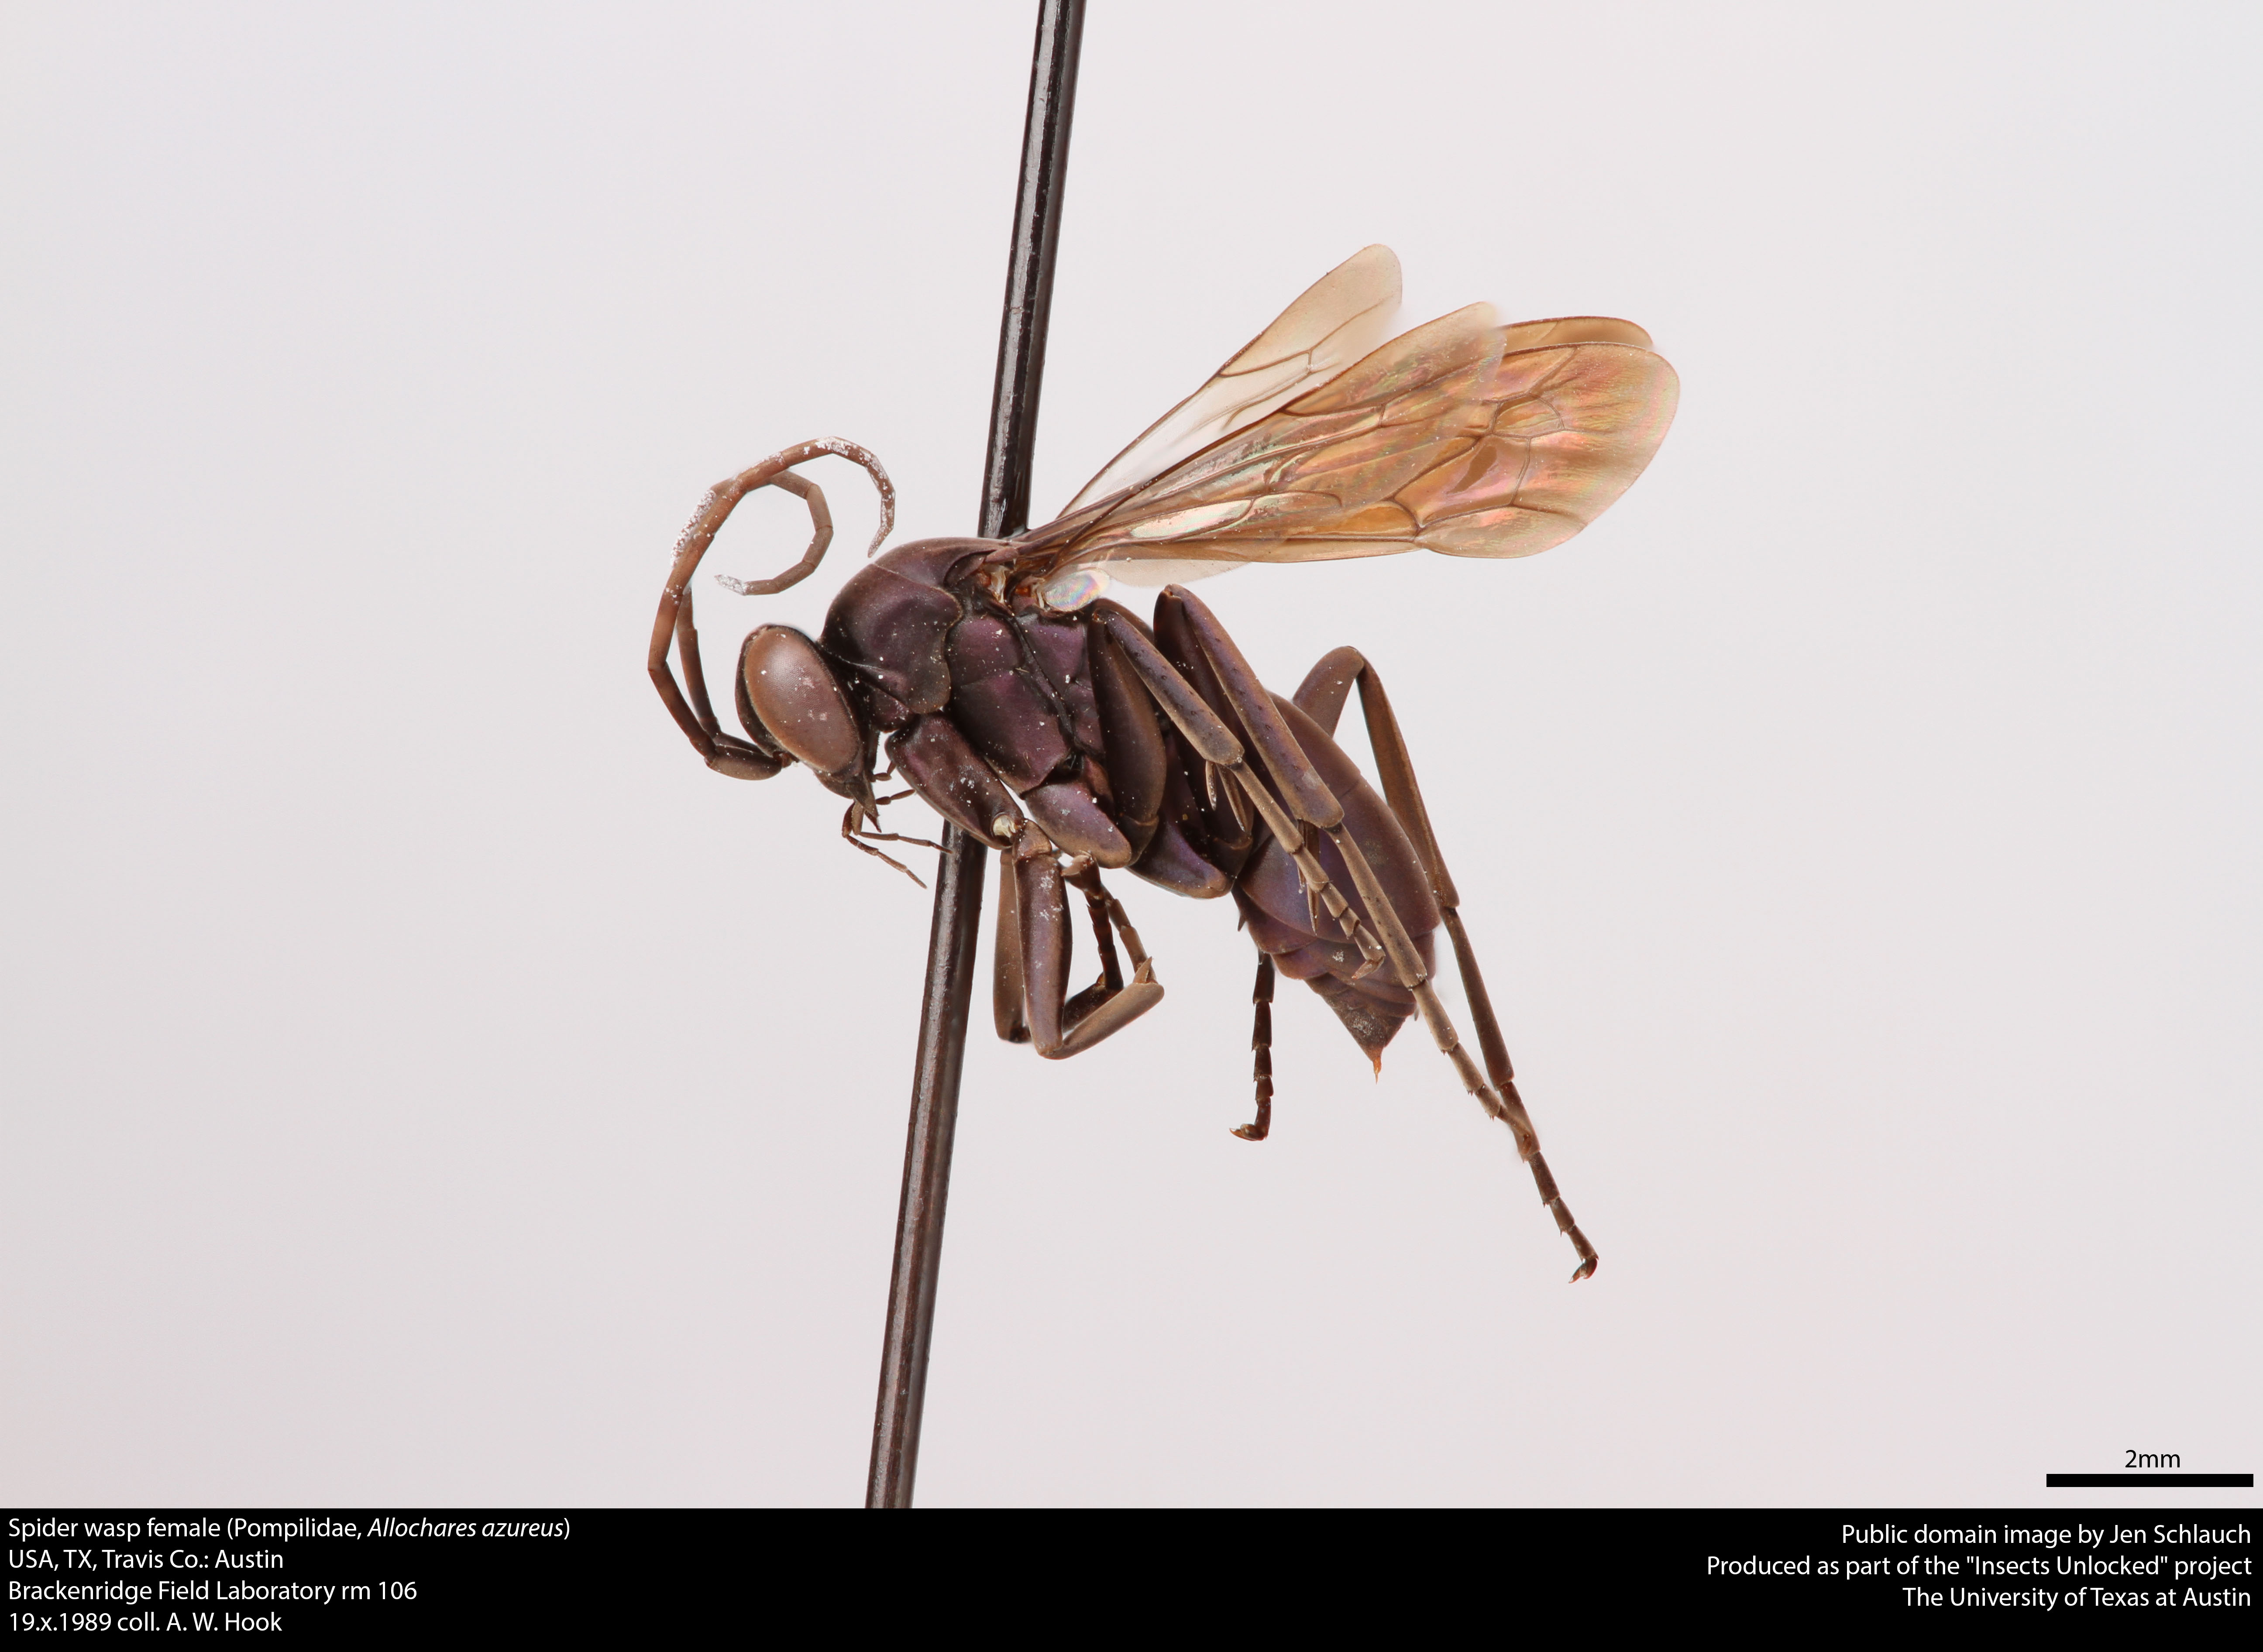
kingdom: Animalia
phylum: Arthropoda
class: Insecta
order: Hymenoptera
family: Pompilidae
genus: Allochares
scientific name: Allochares azureus
